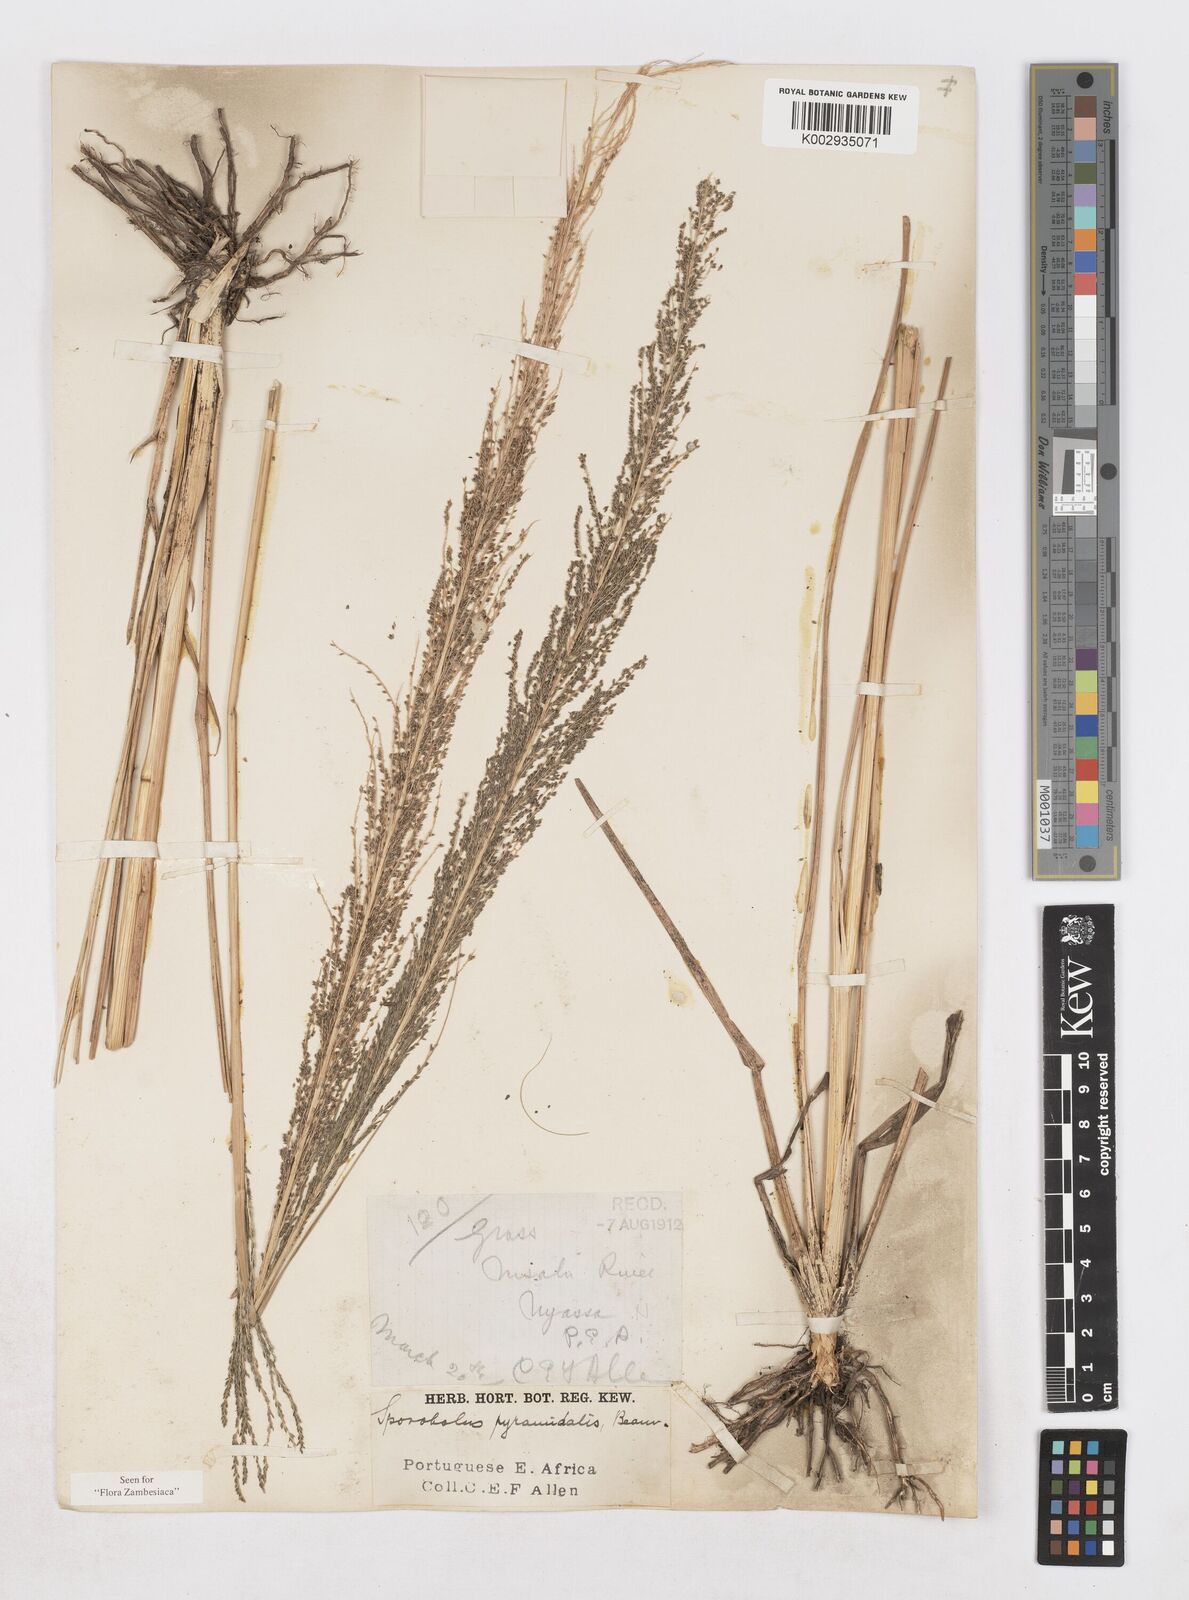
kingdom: Plantae
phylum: Tracheophyta
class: Liliopsida
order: Poales
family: Poaceae
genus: Sporobolus
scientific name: Sporobolus pyramidalis
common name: West indian dropseed
